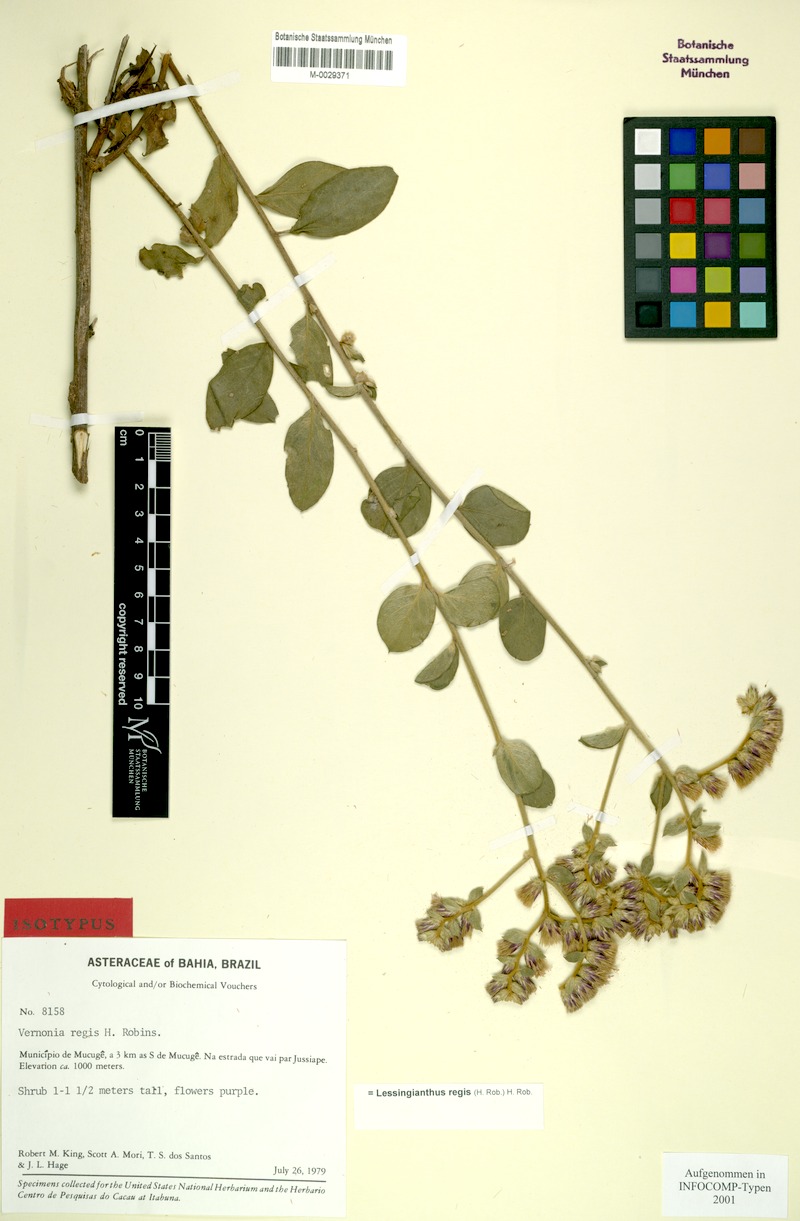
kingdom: Plantae
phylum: Tracheophyta
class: Magnoliopsida
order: Asterales
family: Asteraceae
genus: Lessingianthus
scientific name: Lessingianthus regis
